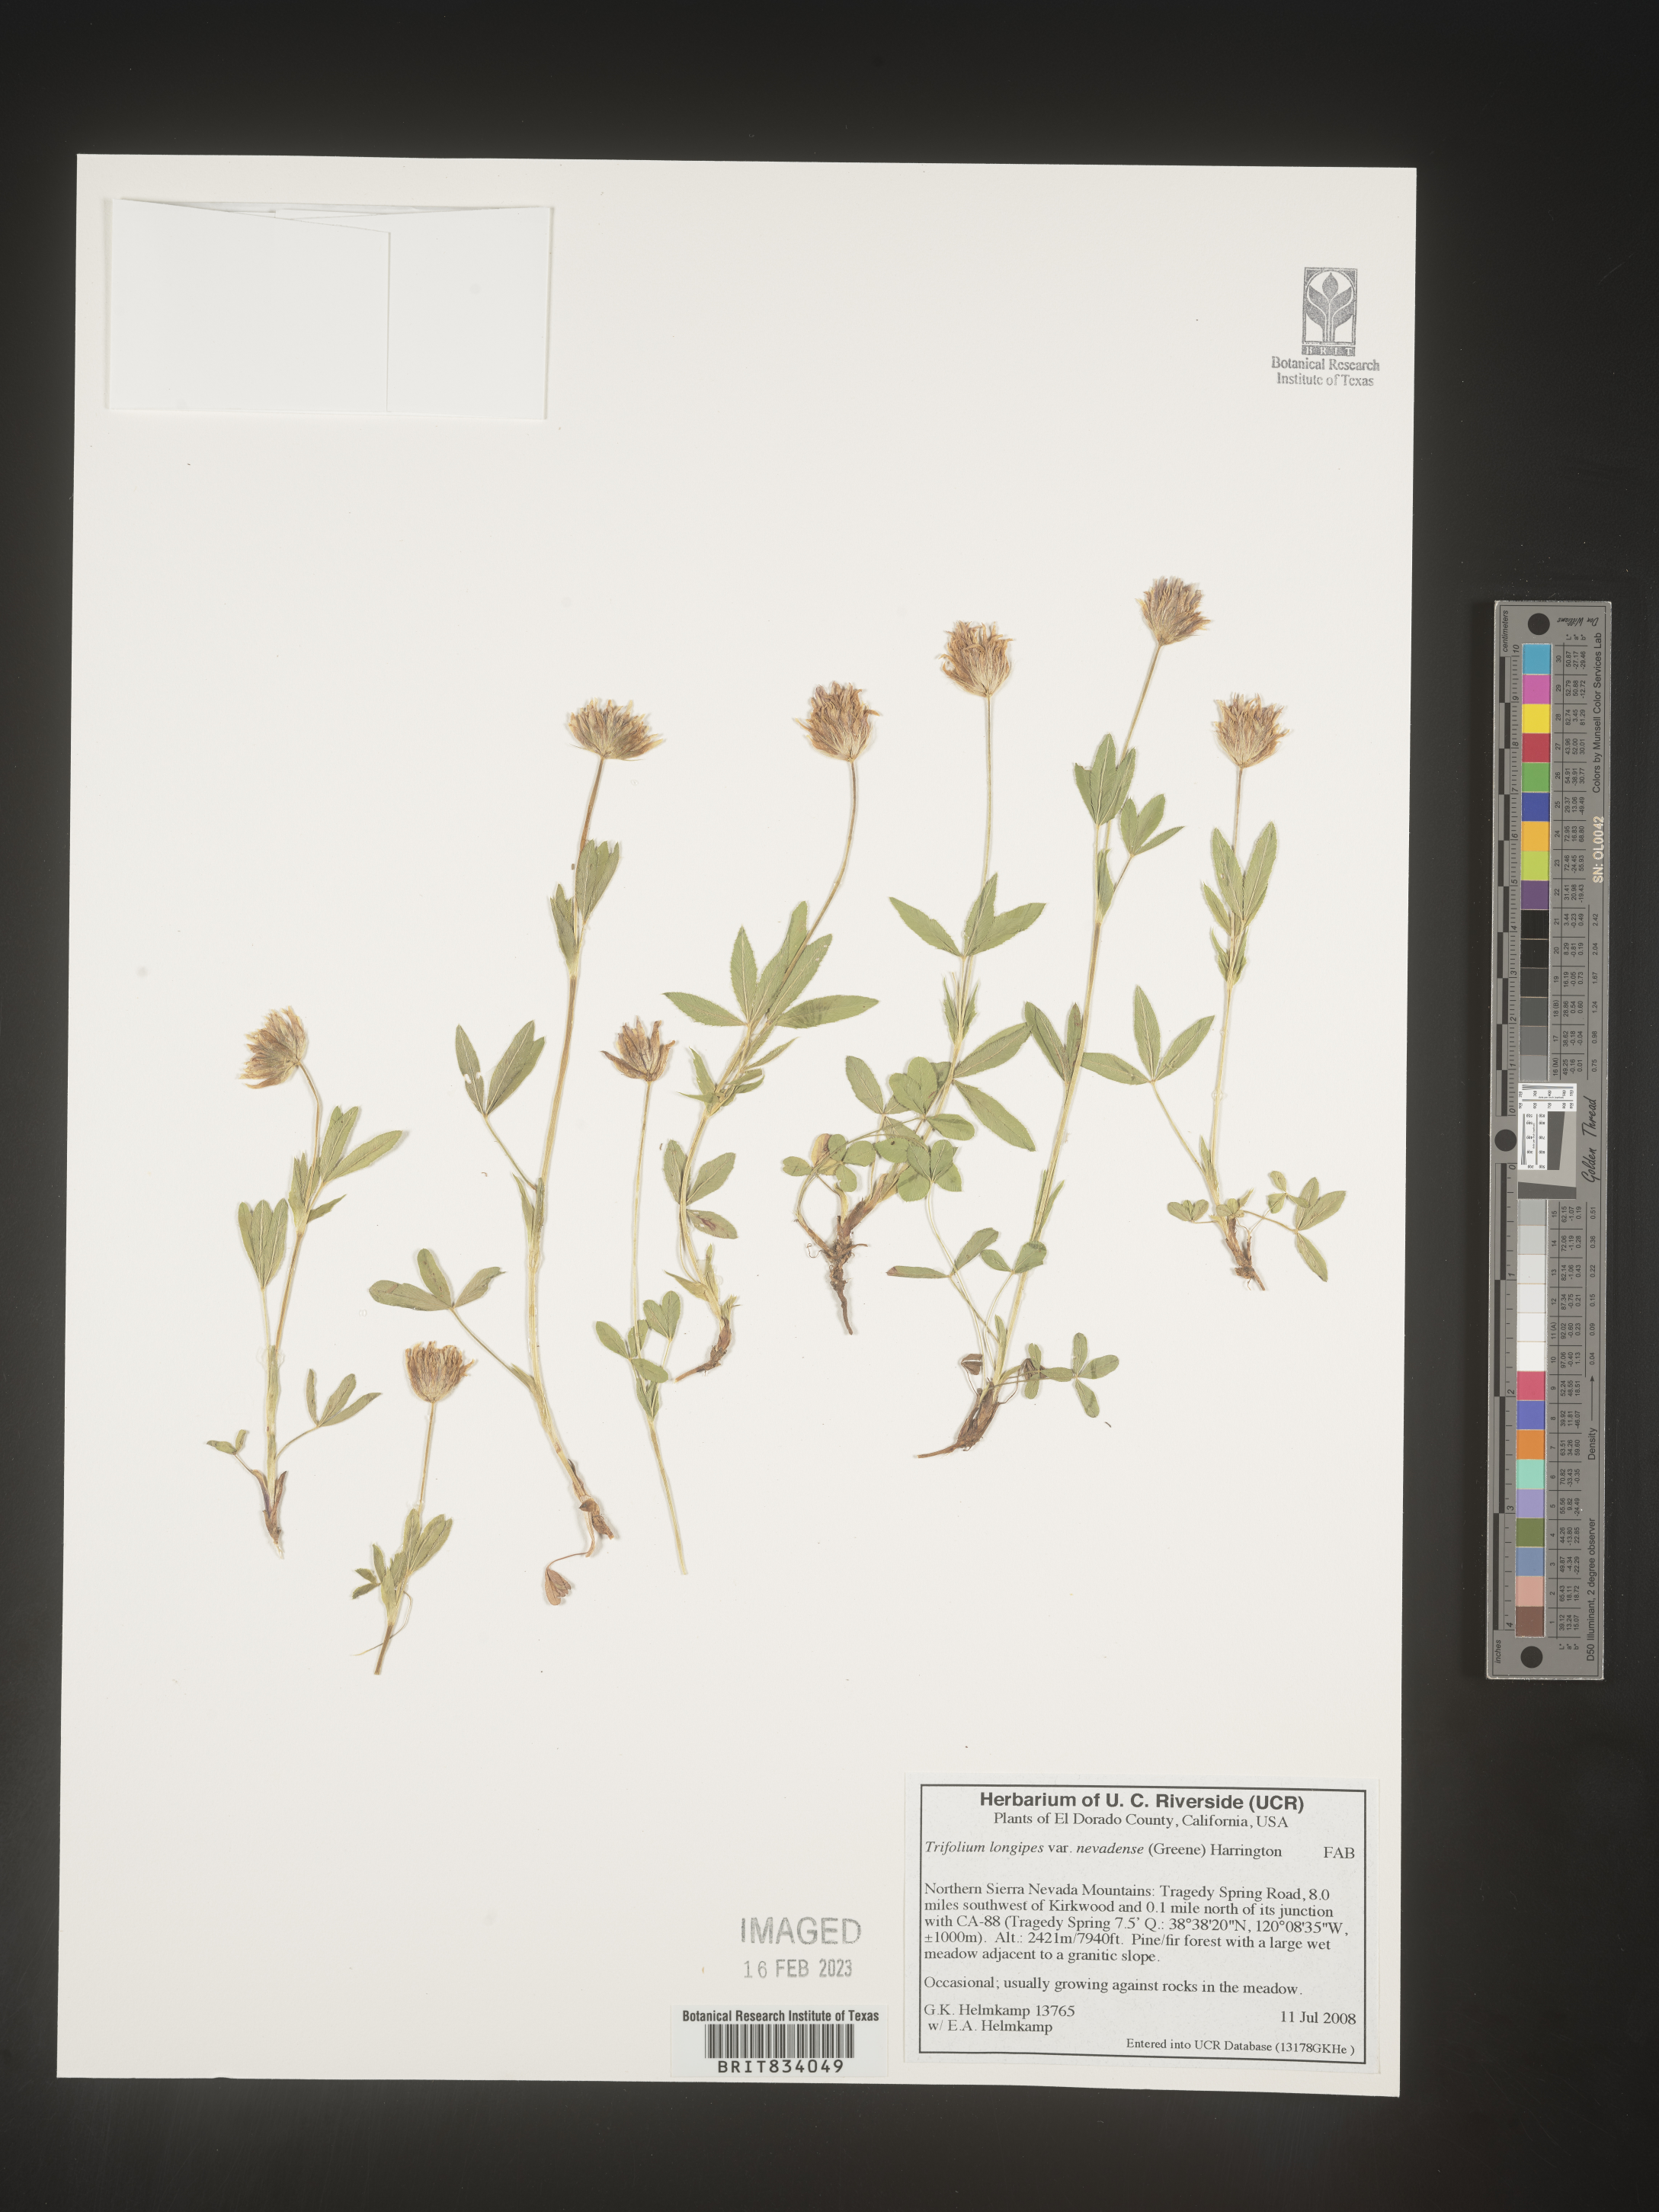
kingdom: Plantae
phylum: Tracheophyta
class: Magnoliopsida
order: Fabales
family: Fabaceae
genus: Trifolium
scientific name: Trifolium
